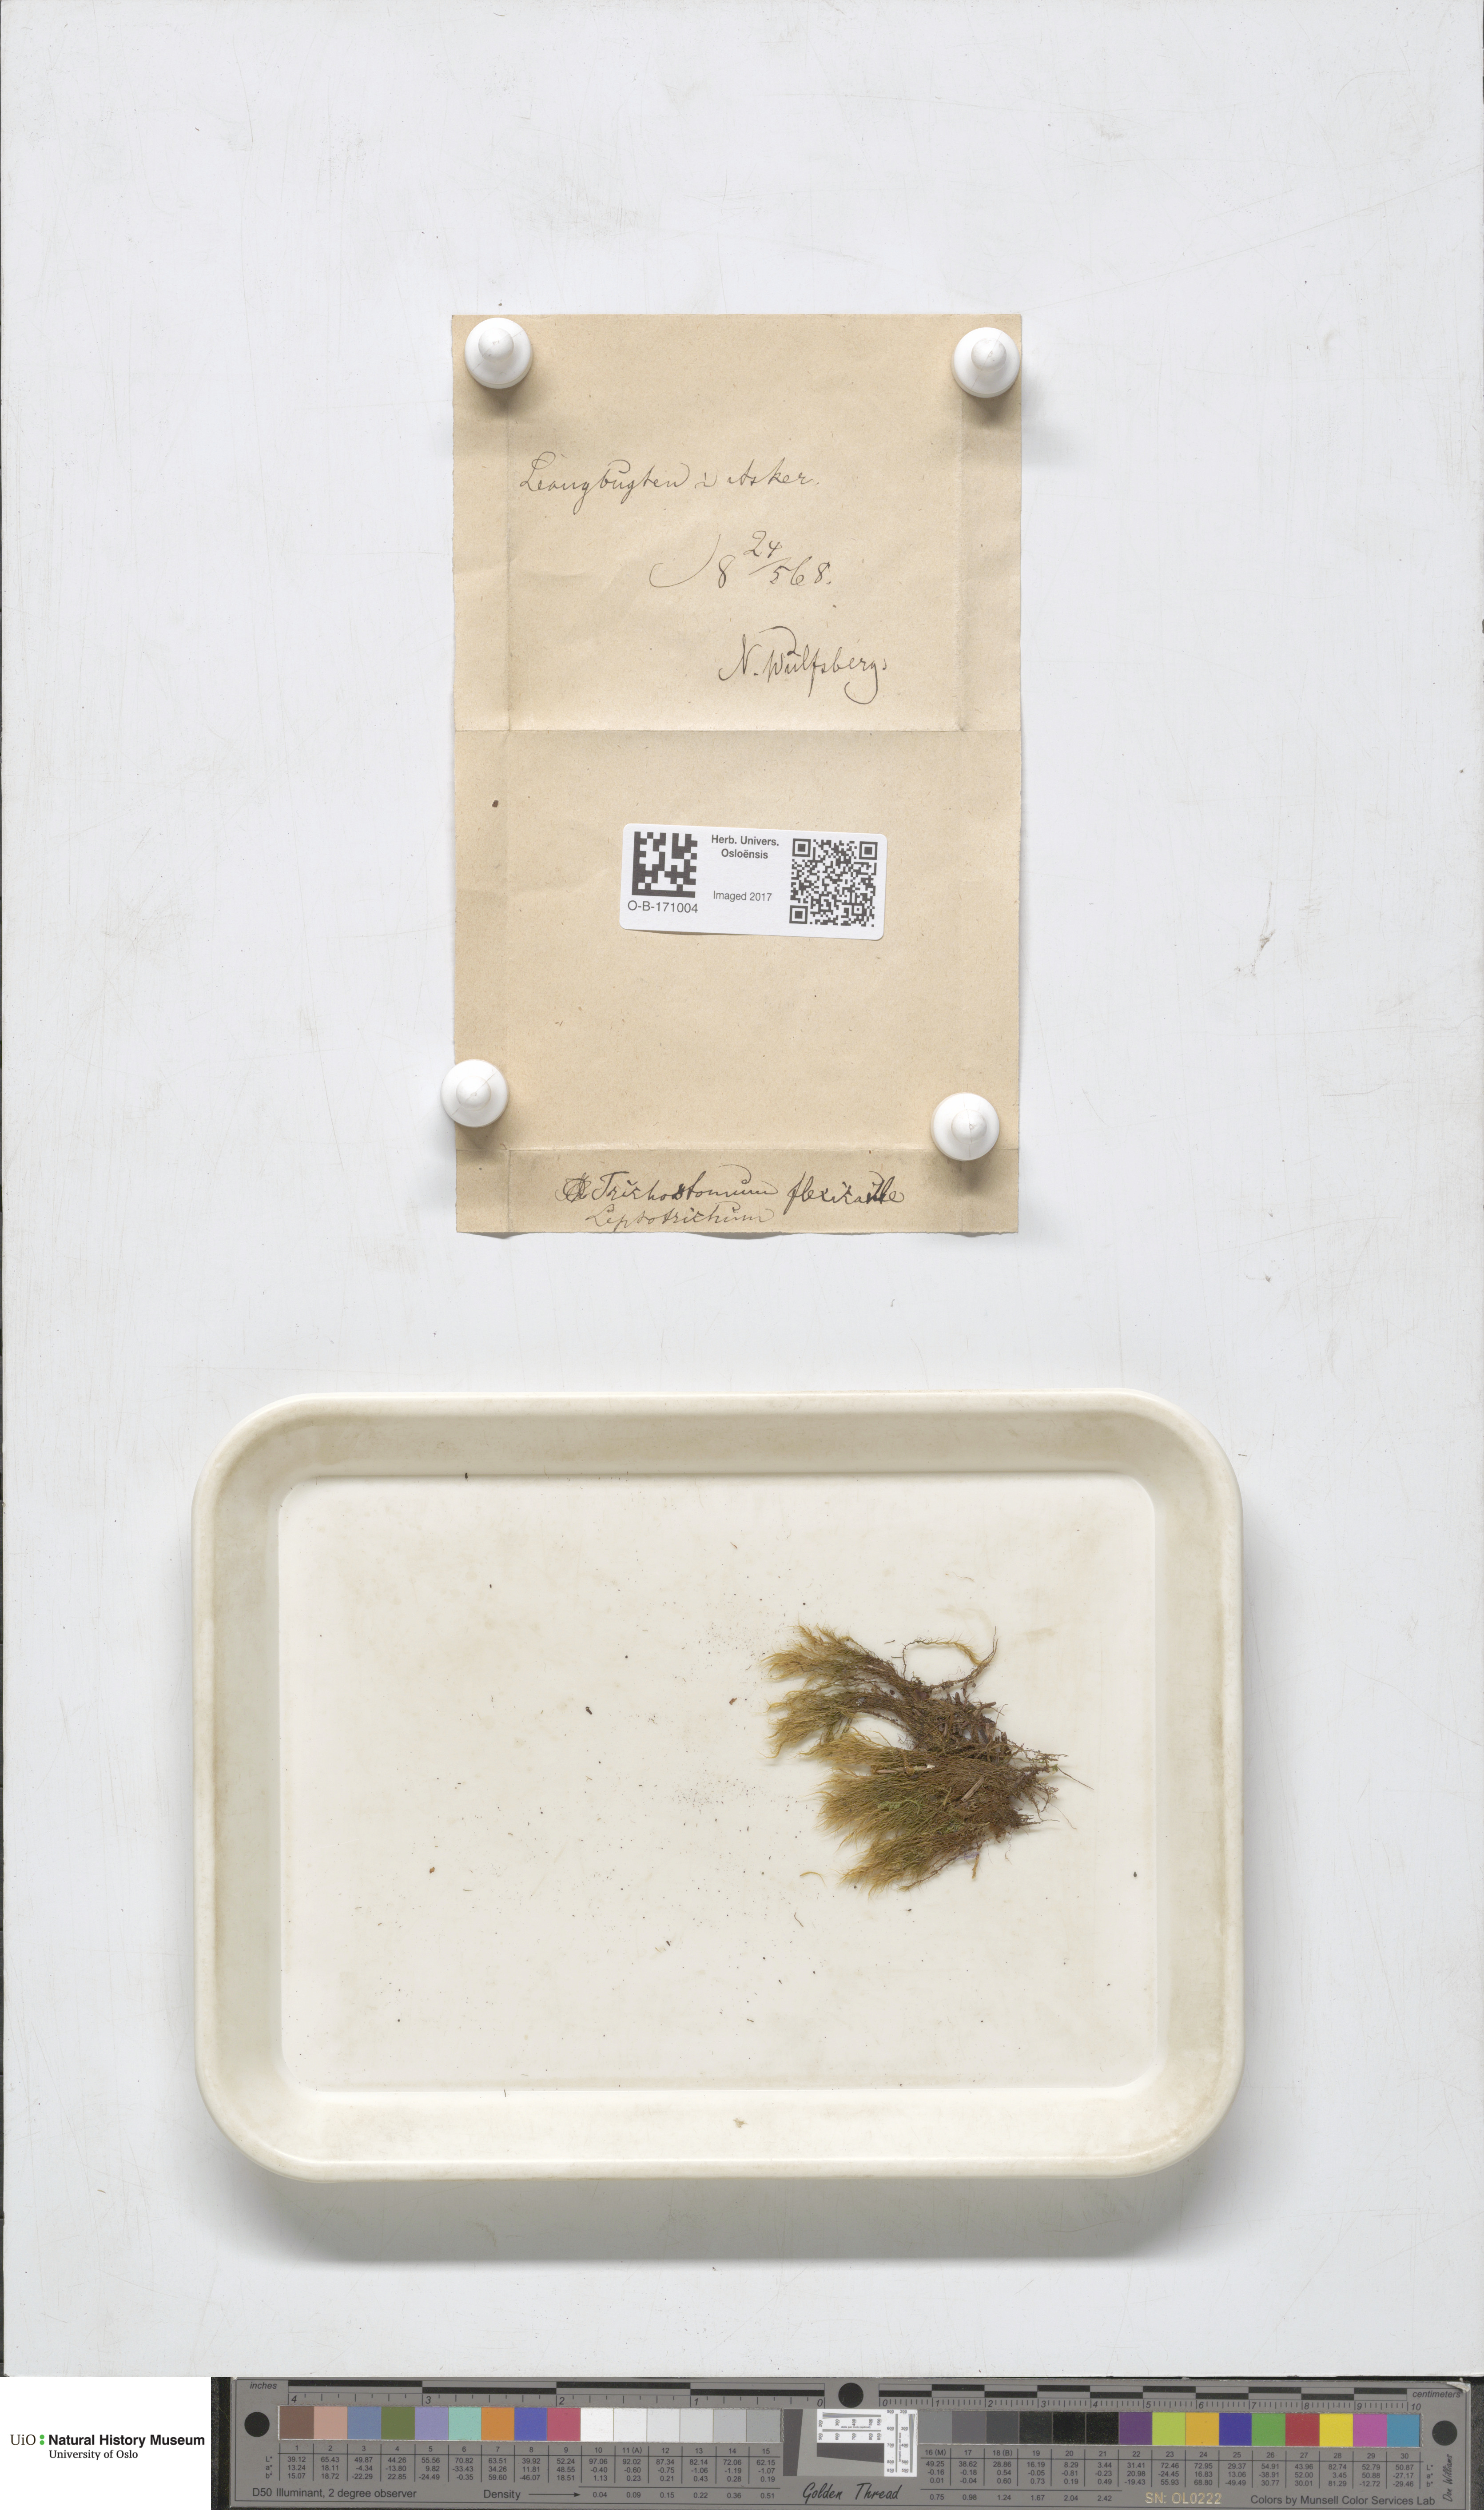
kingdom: Plantae
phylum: Bryophyta
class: Bryopsida
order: Scouleriales
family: Flexitrichaceae
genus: Flexitrichum
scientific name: Flexitrichum flexicaule
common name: Bendy ditrichum
